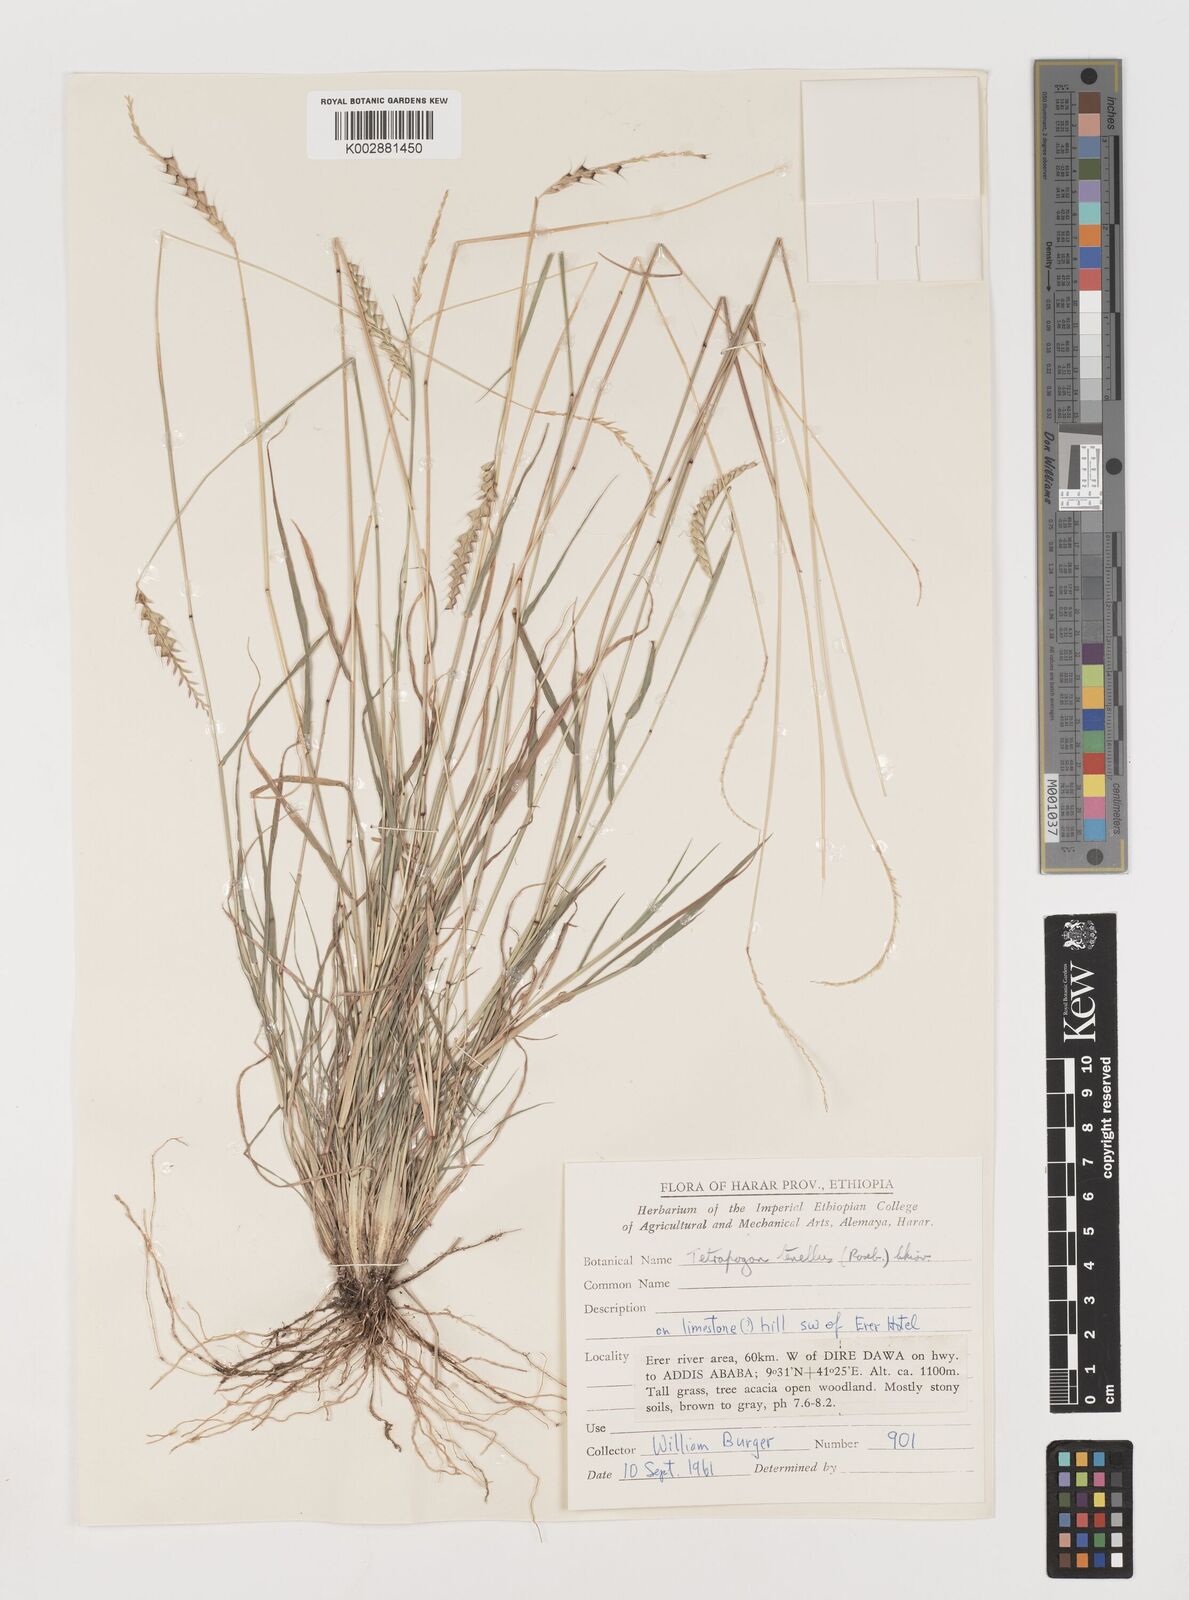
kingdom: Plantae
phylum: Tracheophyta
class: Liliopsida
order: Poales
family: Poaceae
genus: Tetrapogon
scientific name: Tetrapogon tenellus
